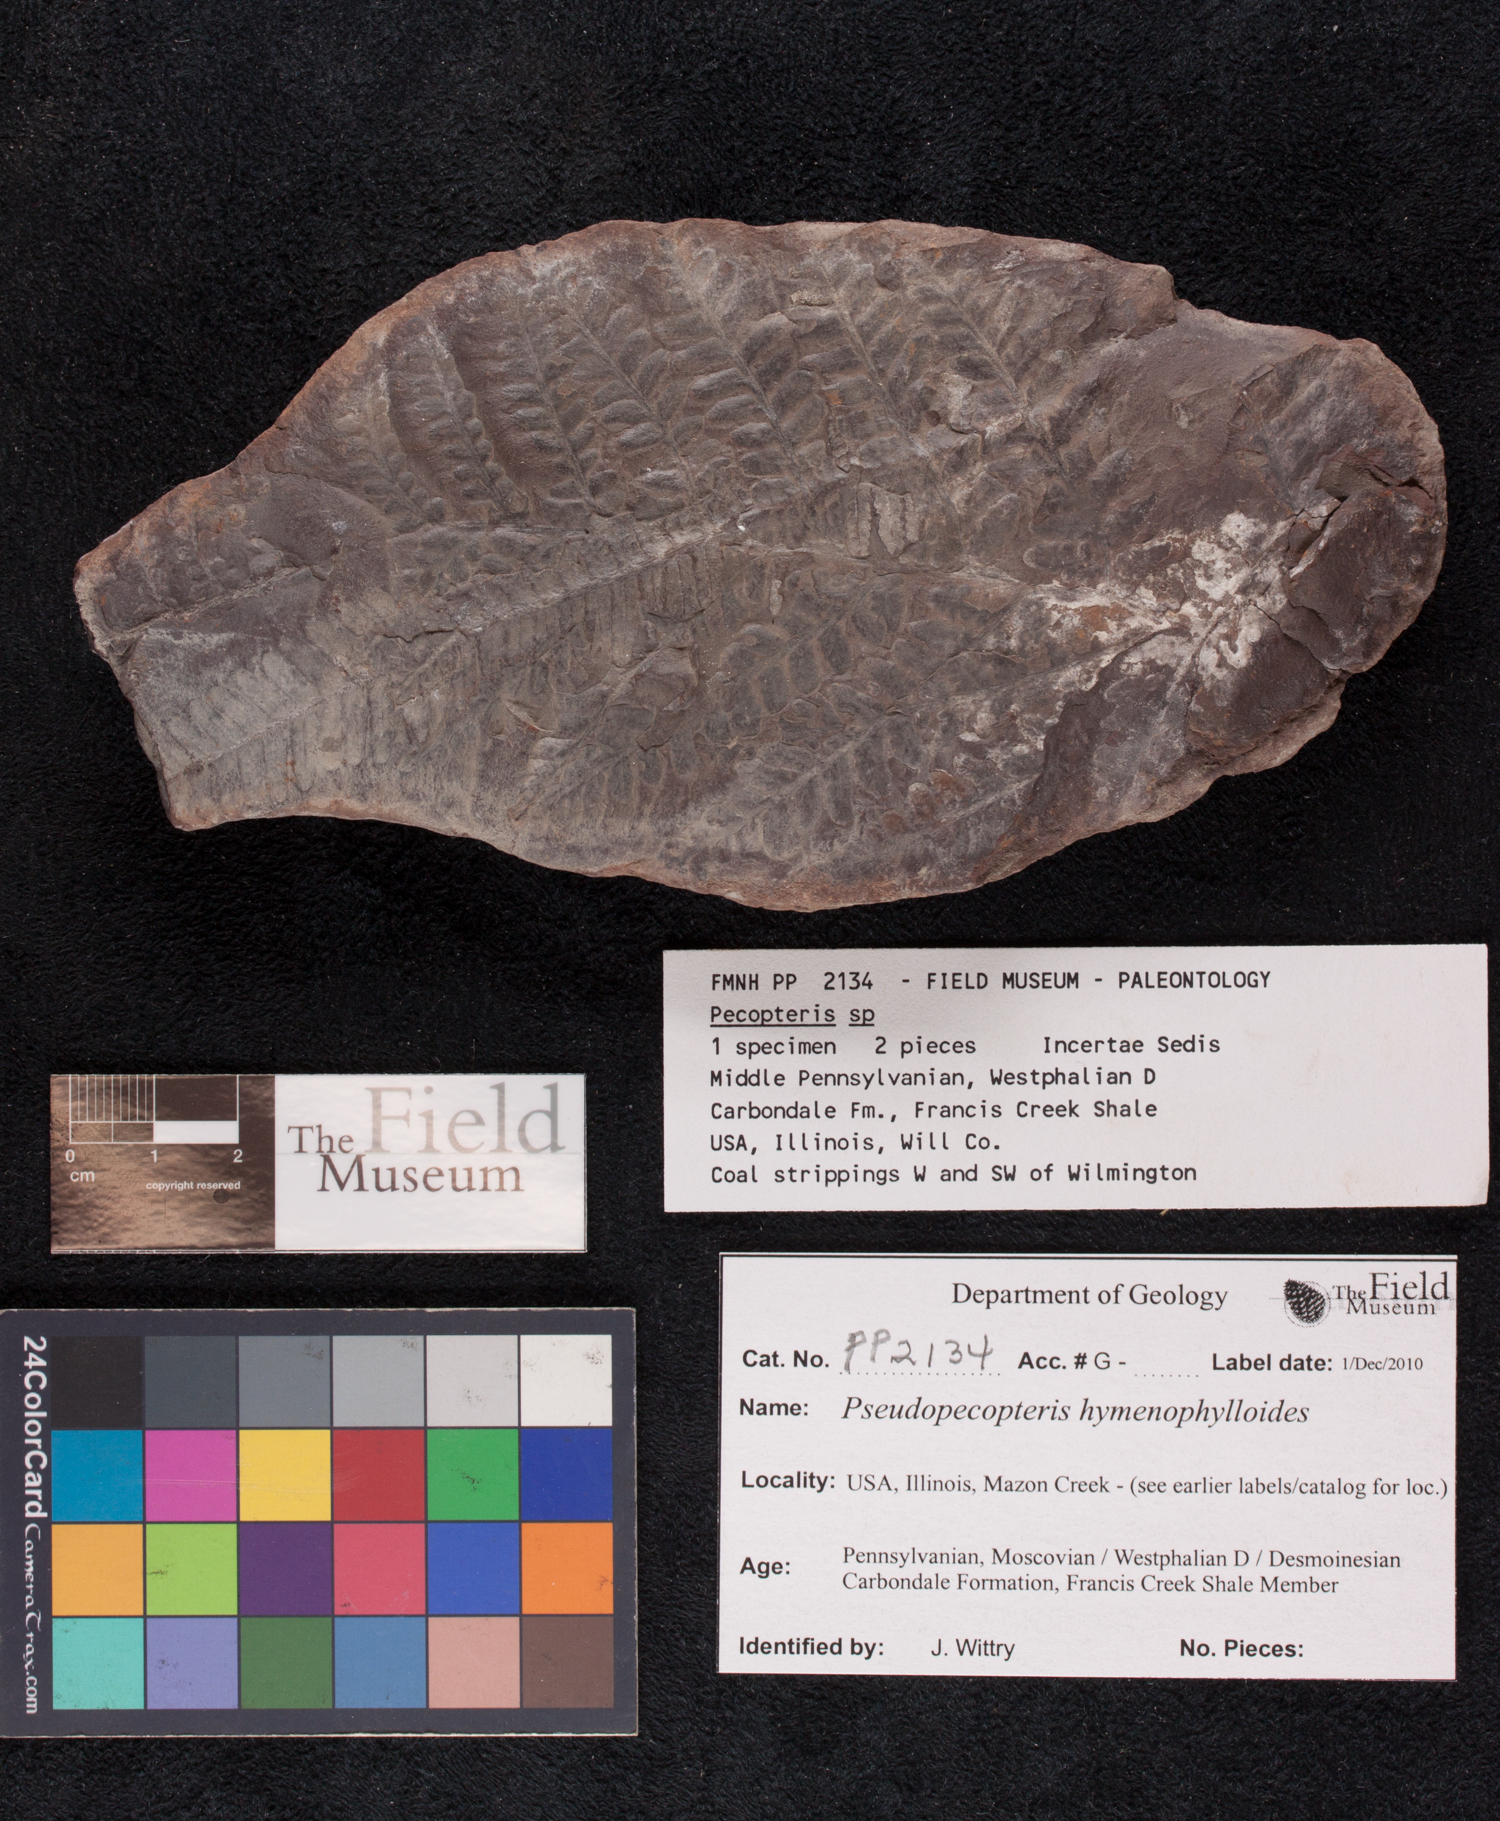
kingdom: Plantae
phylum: Tracheophyta
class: Polypodiopsida
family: Stauropteridaceae
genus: Crossotheca
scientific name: Crossotheca
